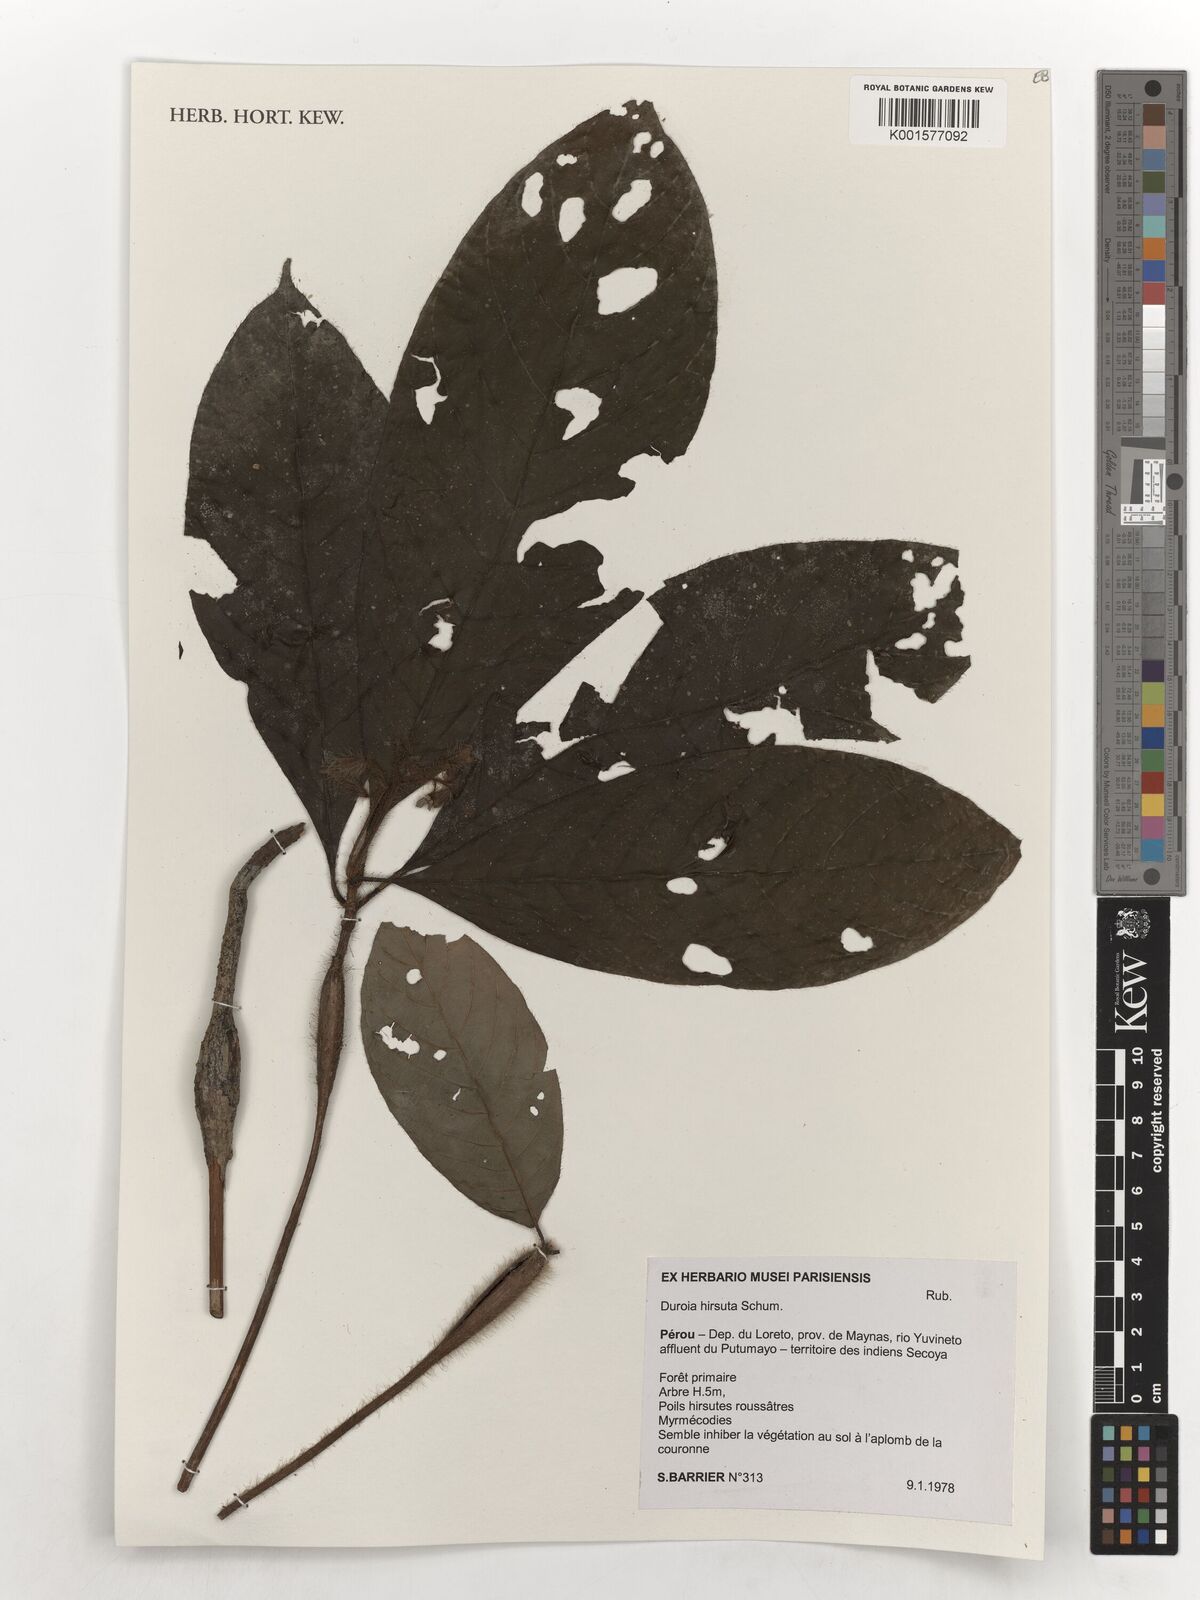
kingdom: Plantae
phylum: Tracheophyta
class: Magnoliopsida
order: Gentianales
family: Rubiaceae
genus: Duroia
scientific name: Duroia hirsuta
